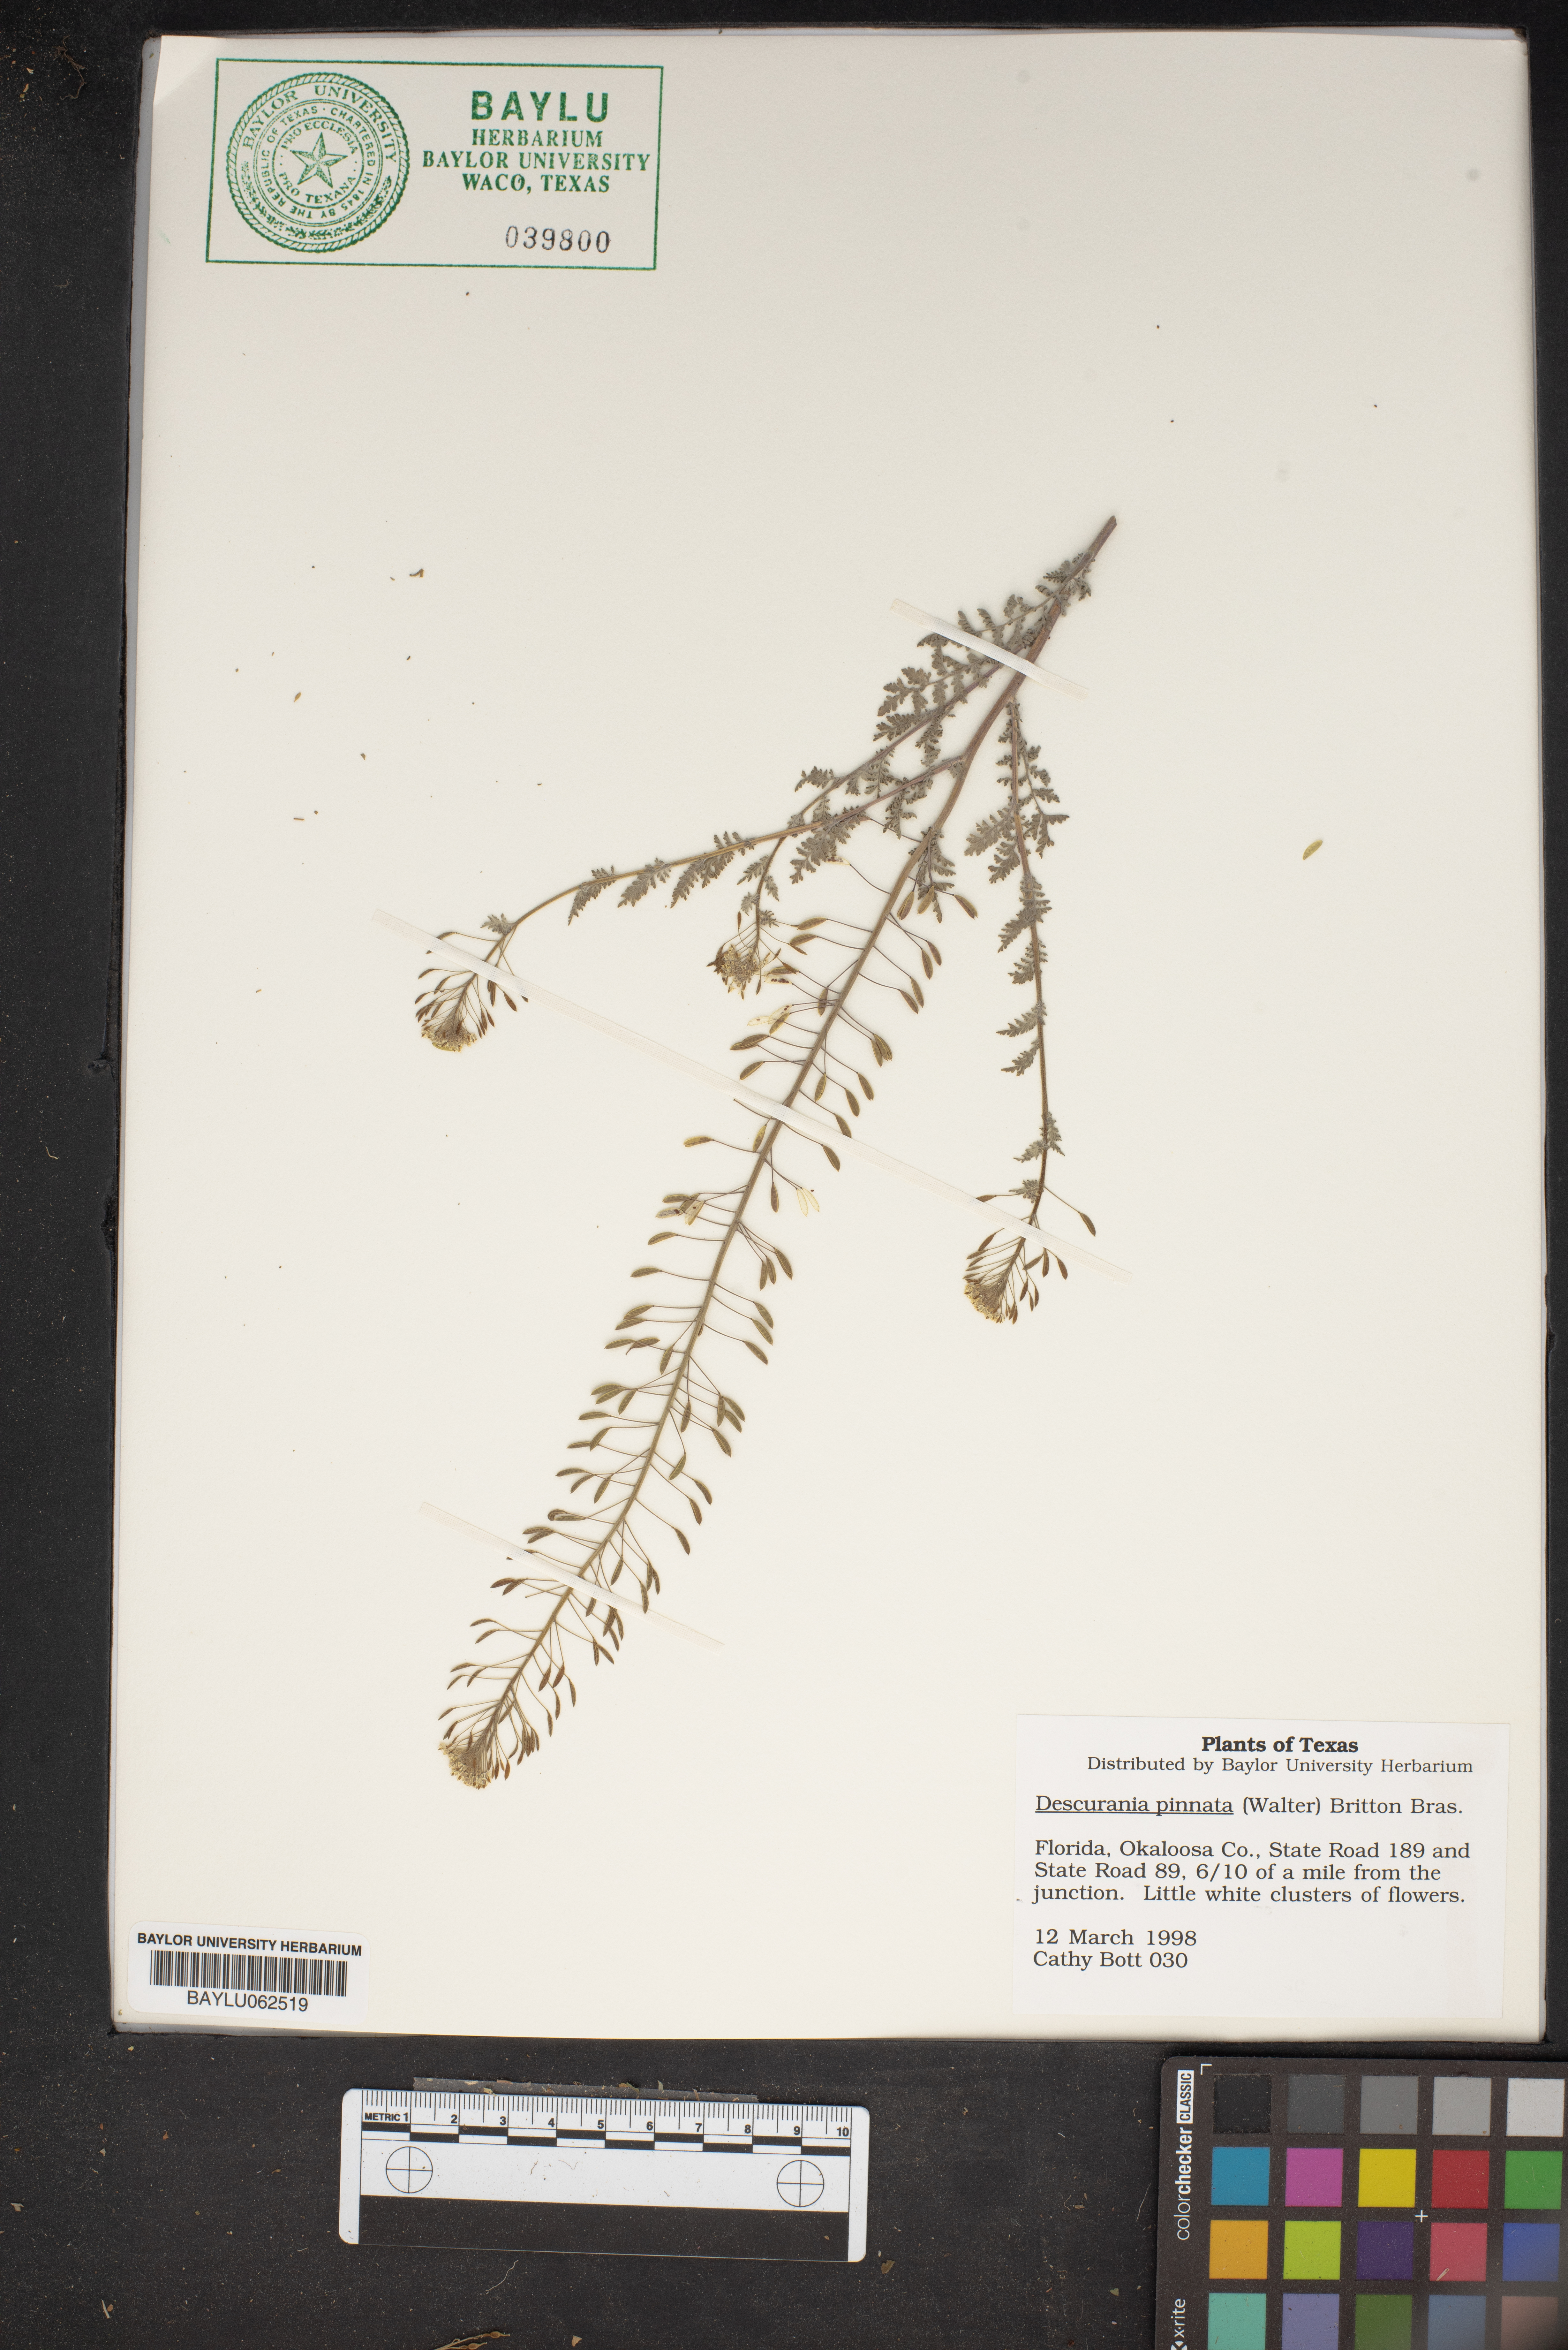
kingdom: Plantae
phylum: Tracheophyta
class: Magnoliopsida
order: Brassicales
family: Brassicaceae
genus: Descurainia
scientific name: Descurainia pinnata
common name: Western tansy mustard
